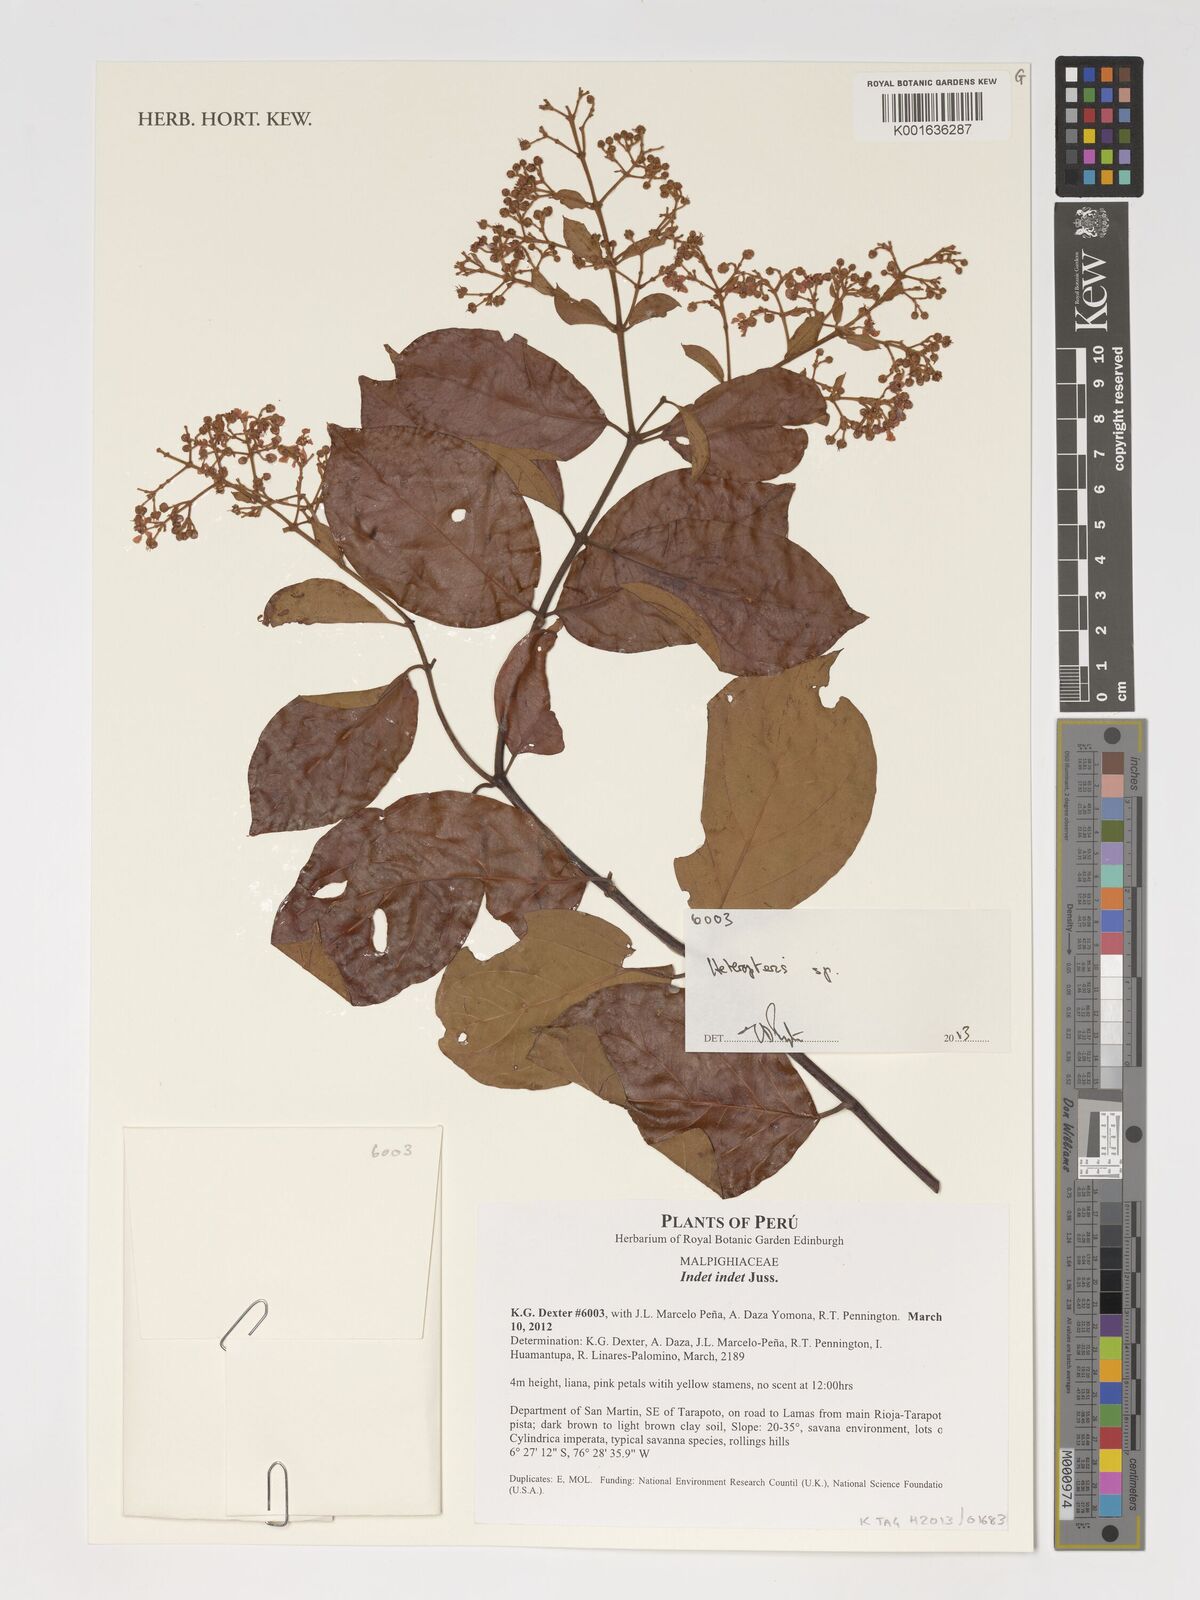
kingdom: Plantae
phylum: Tracheophyta
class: Polypodiopsida
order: Polypodiales
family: Pteridaceae
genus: Heteropteris
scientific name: Heteropteris
